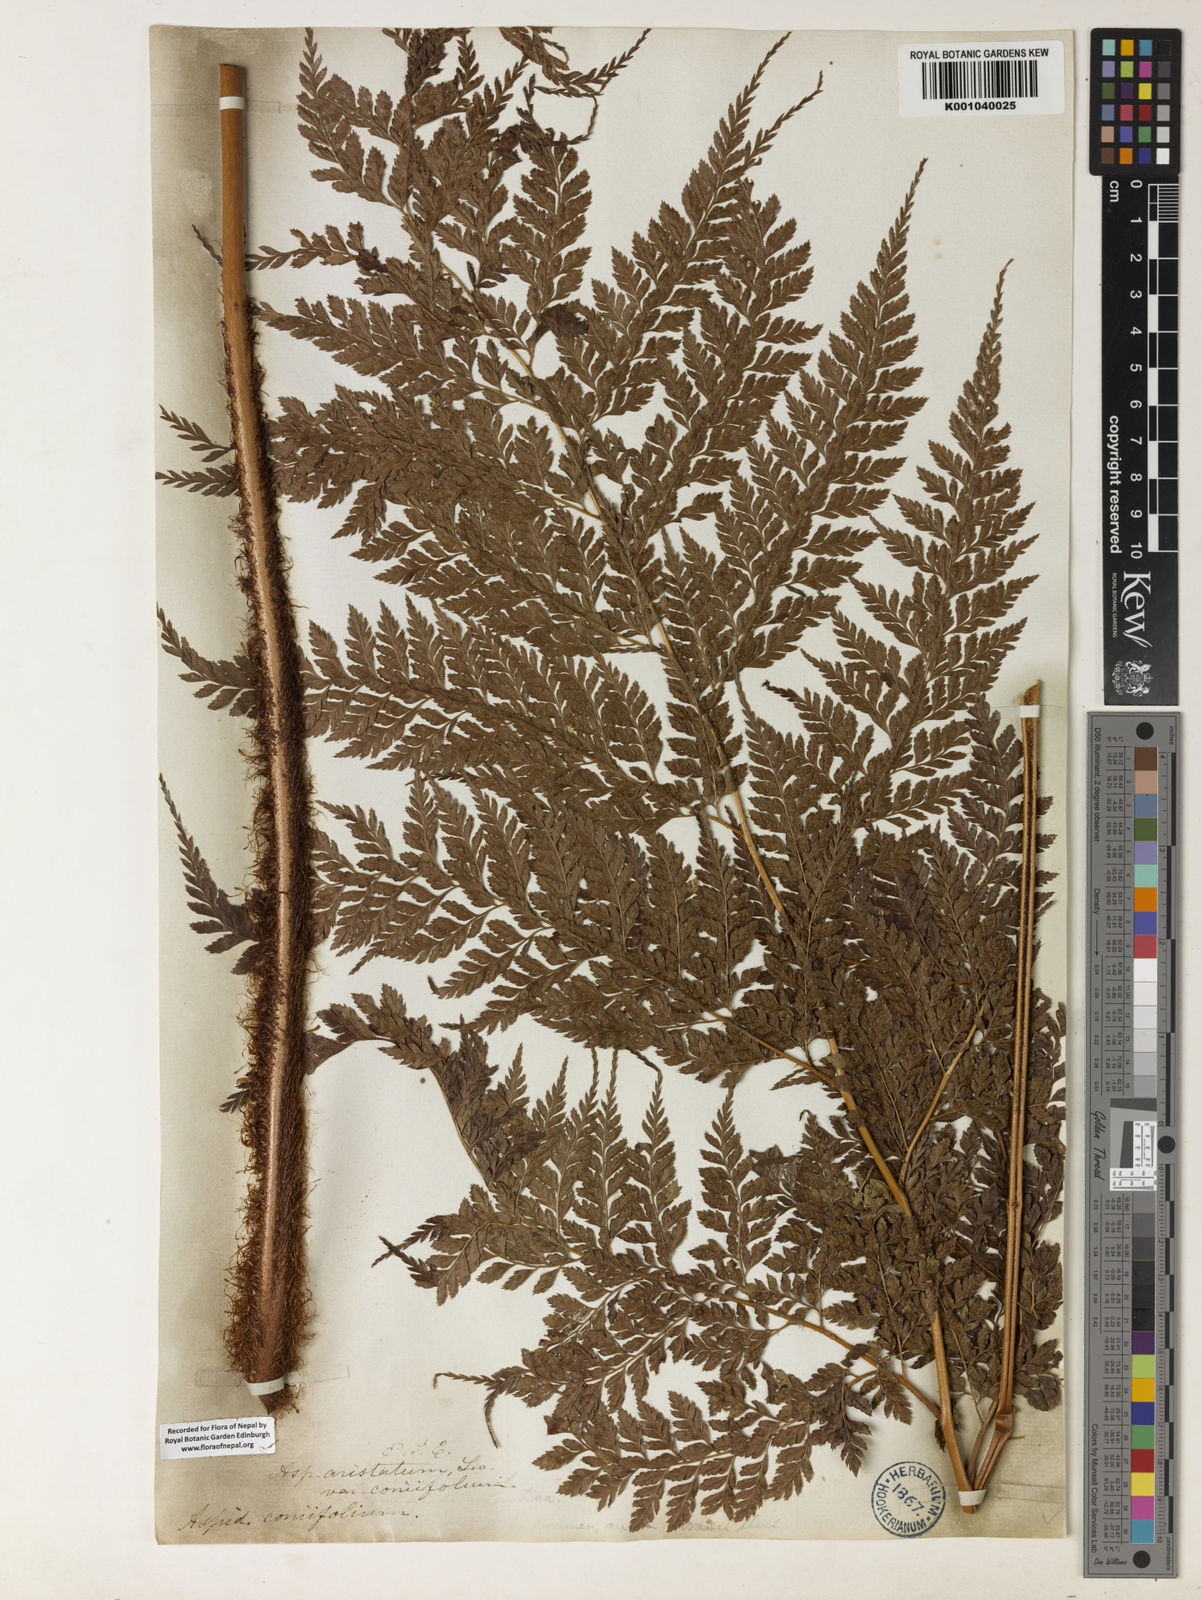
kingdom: Plantae
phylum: Tracheophyta
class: Polypodiopsida
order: Polypodiales
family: Dryopteridaceae
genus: Arachniodes
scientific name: Arachniodes coniifolia
